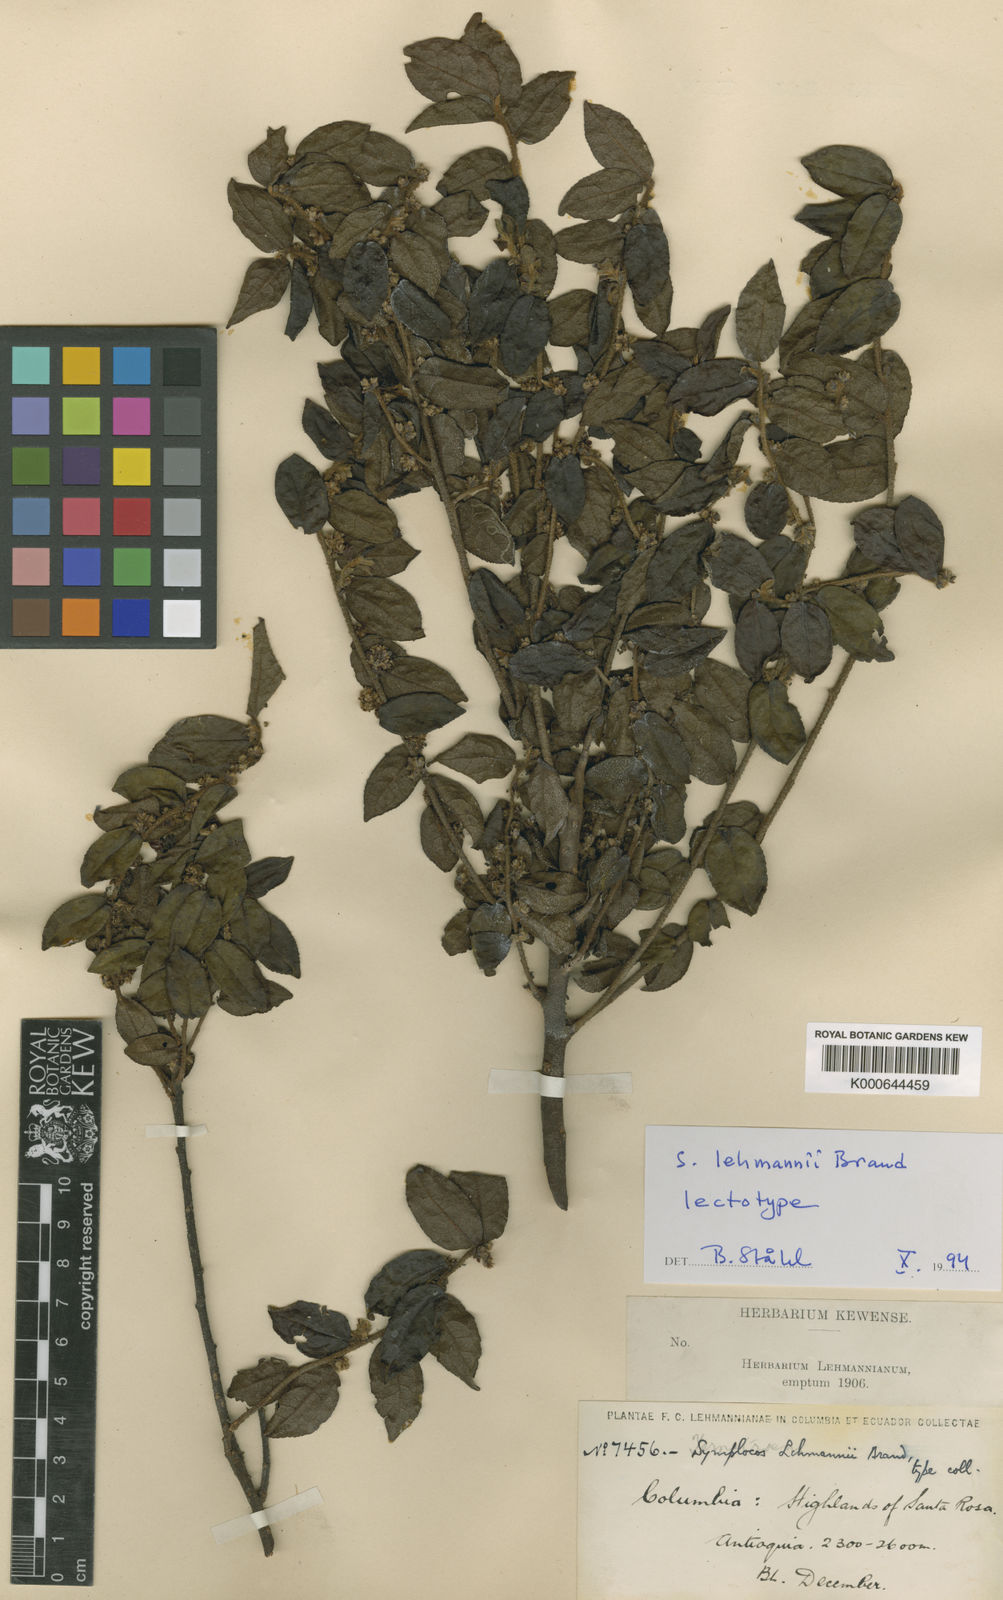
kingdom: Plantae
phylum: Tracheophyta
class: Magnoliopsida
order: Ericales
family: Symplocaceae
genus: Symplocos
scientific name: Symplocos lehmannii
